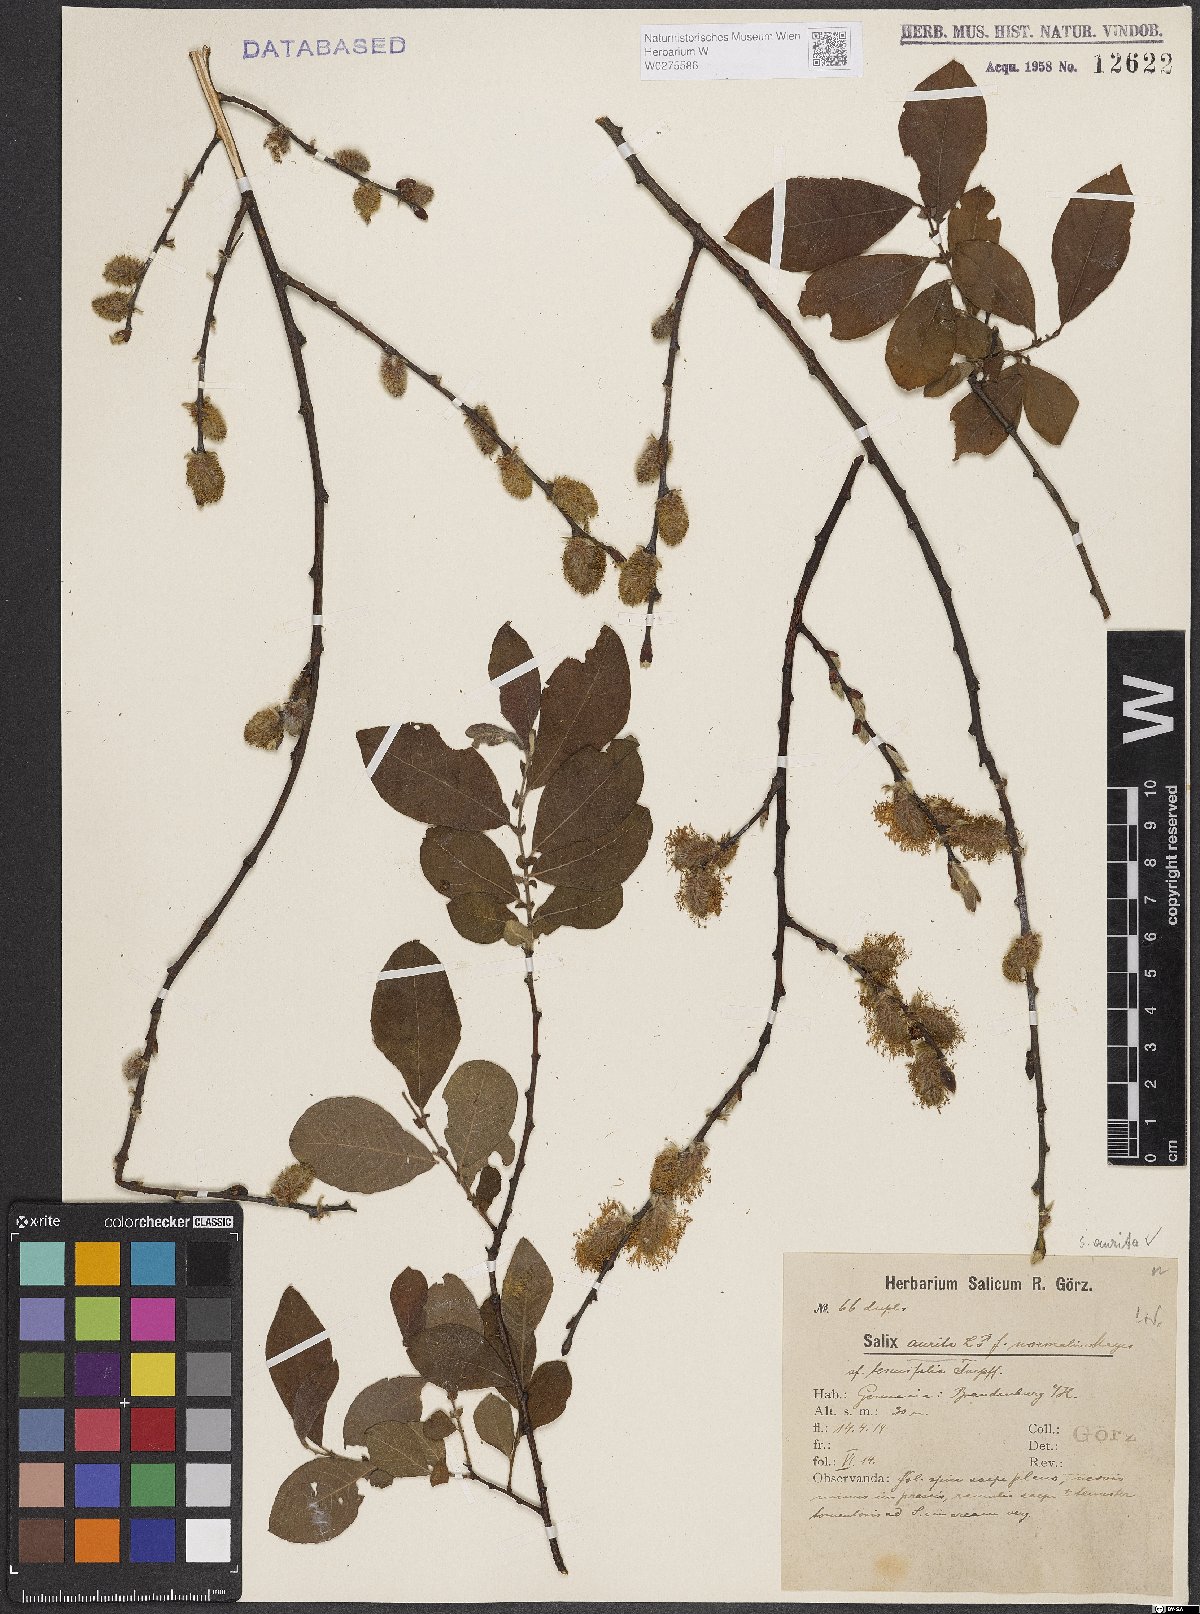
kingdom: Plantae
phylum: Tracheophyta
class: Magnoliopsida
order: Malpighiales
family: Salicaceae
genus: Salix
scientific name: Salix aurita
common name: Eared willow
